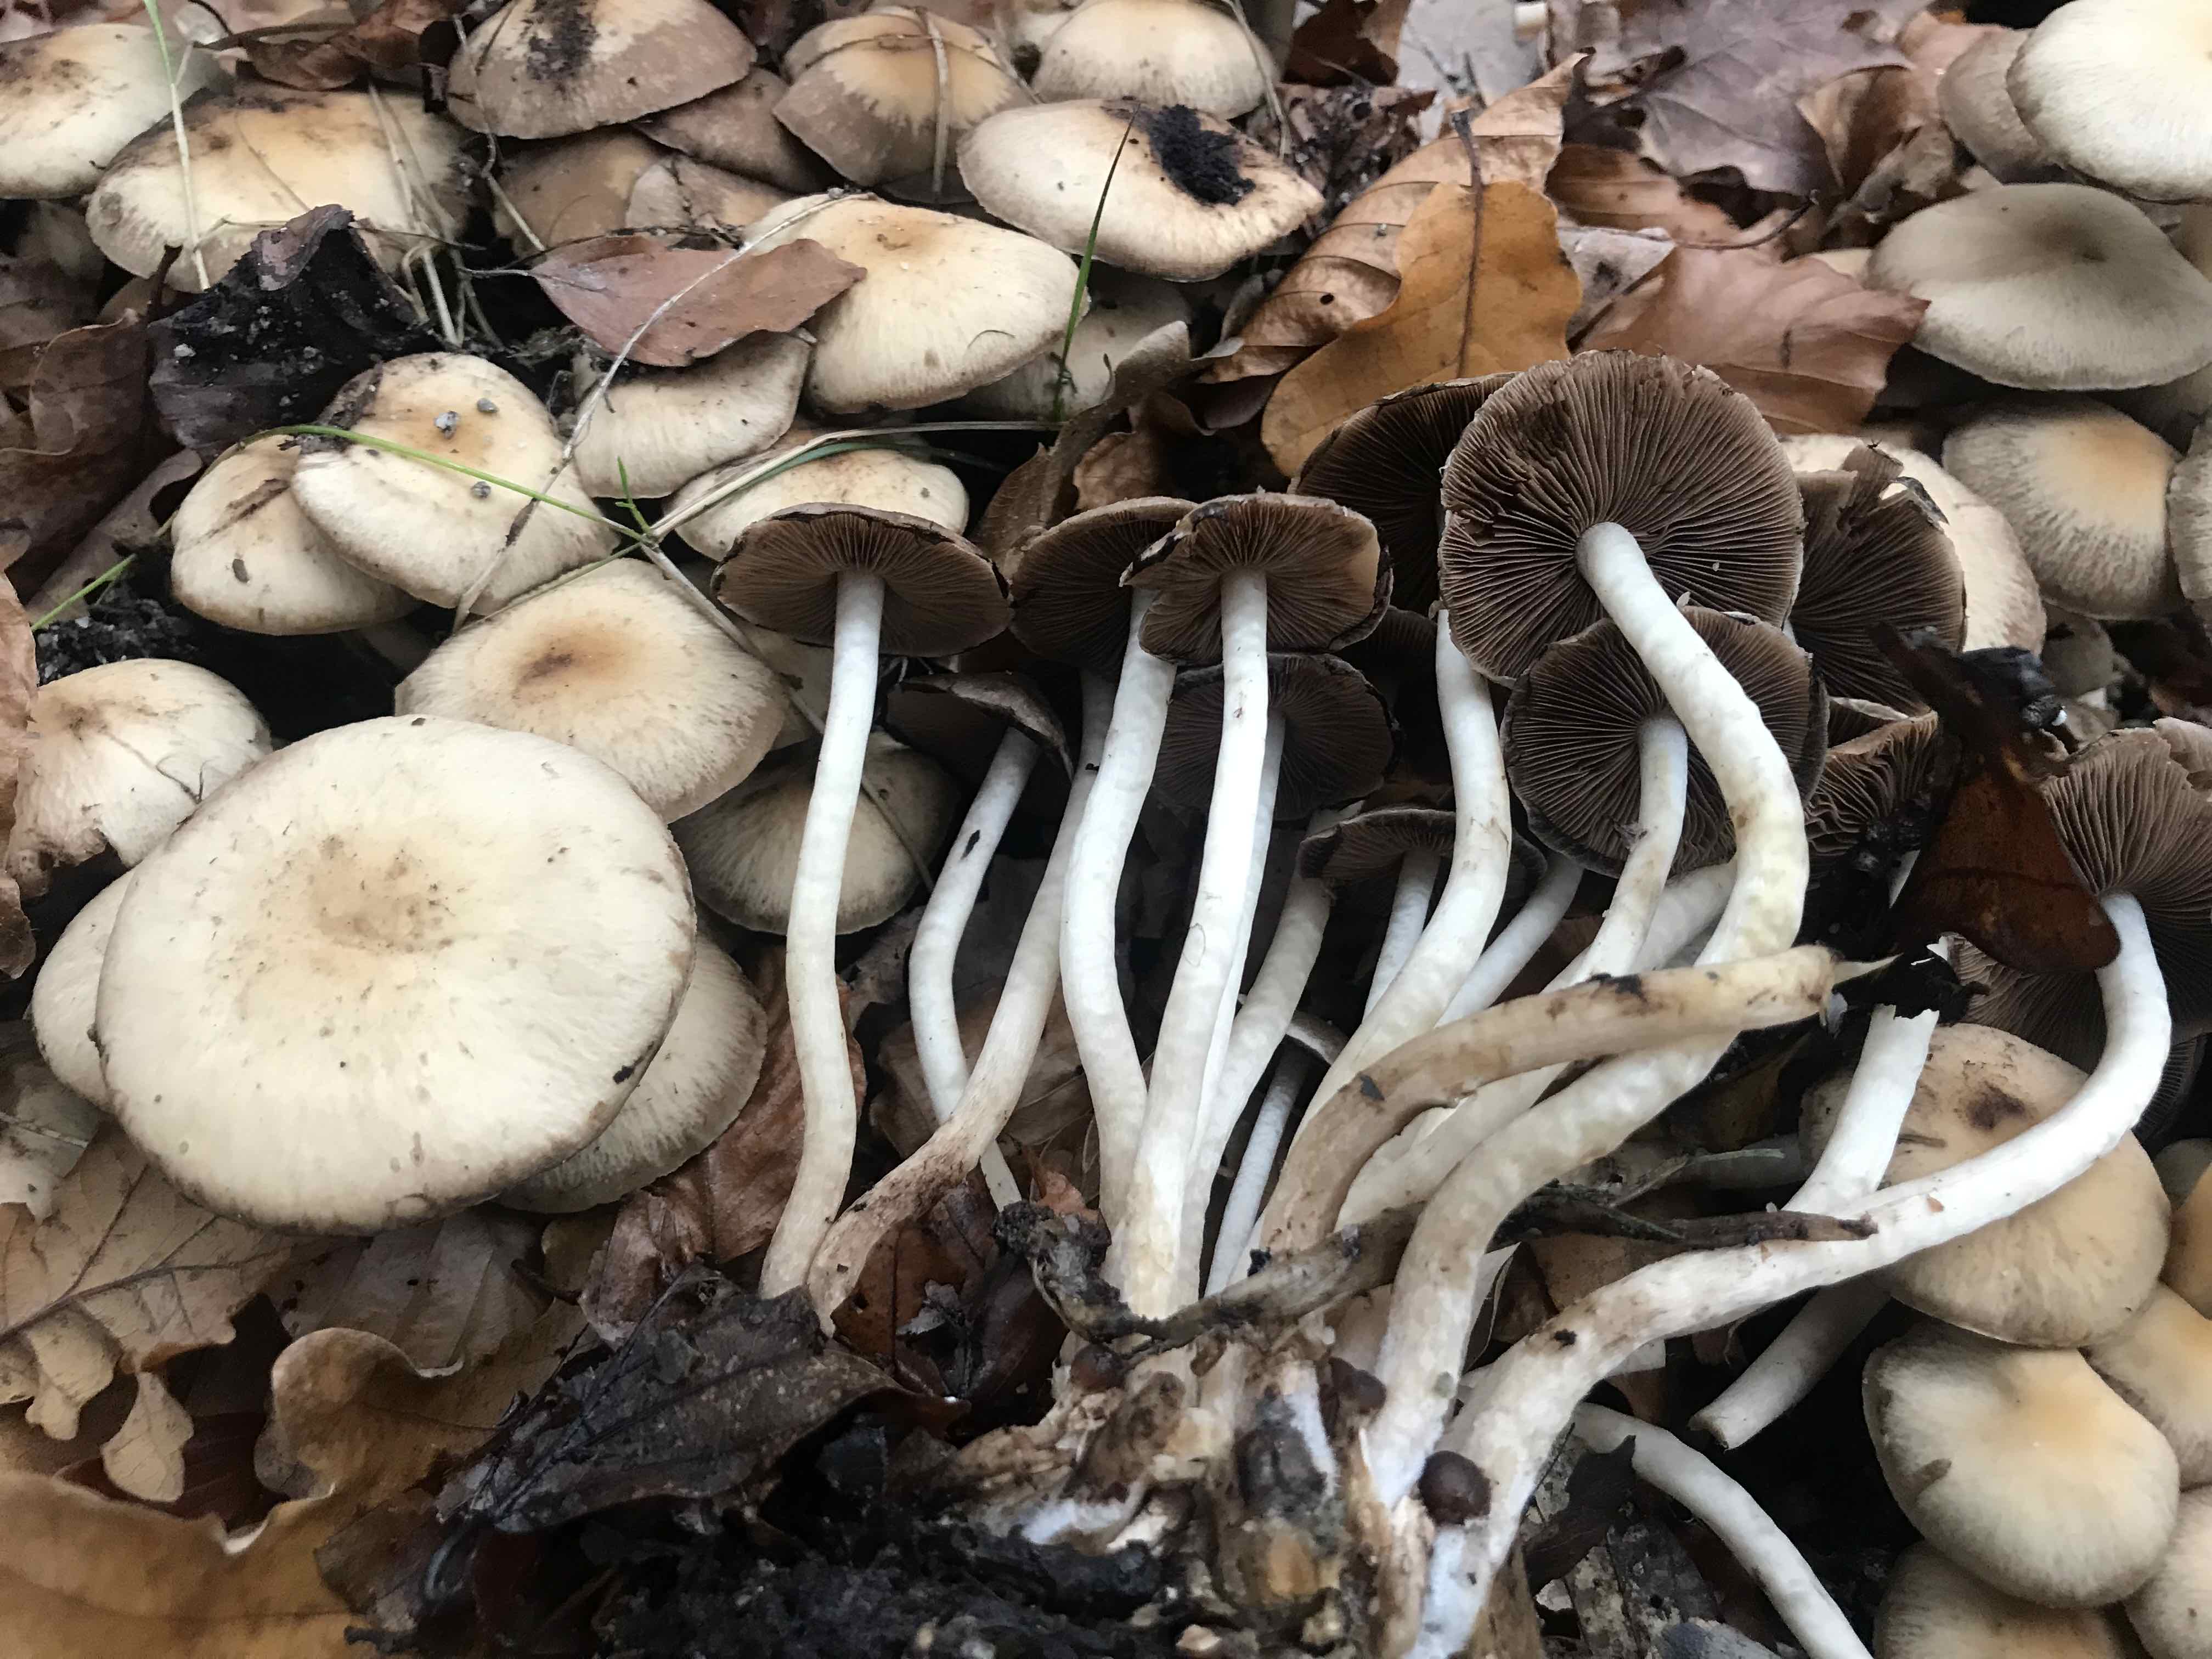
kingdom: Fungi
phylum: Basidiomycota
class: Agaricomycetes
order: Agaricales
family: Psathyrellaceae
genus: Psathyrella
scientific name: Psathyrella piluliformis
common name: lysstokket mørkhat
